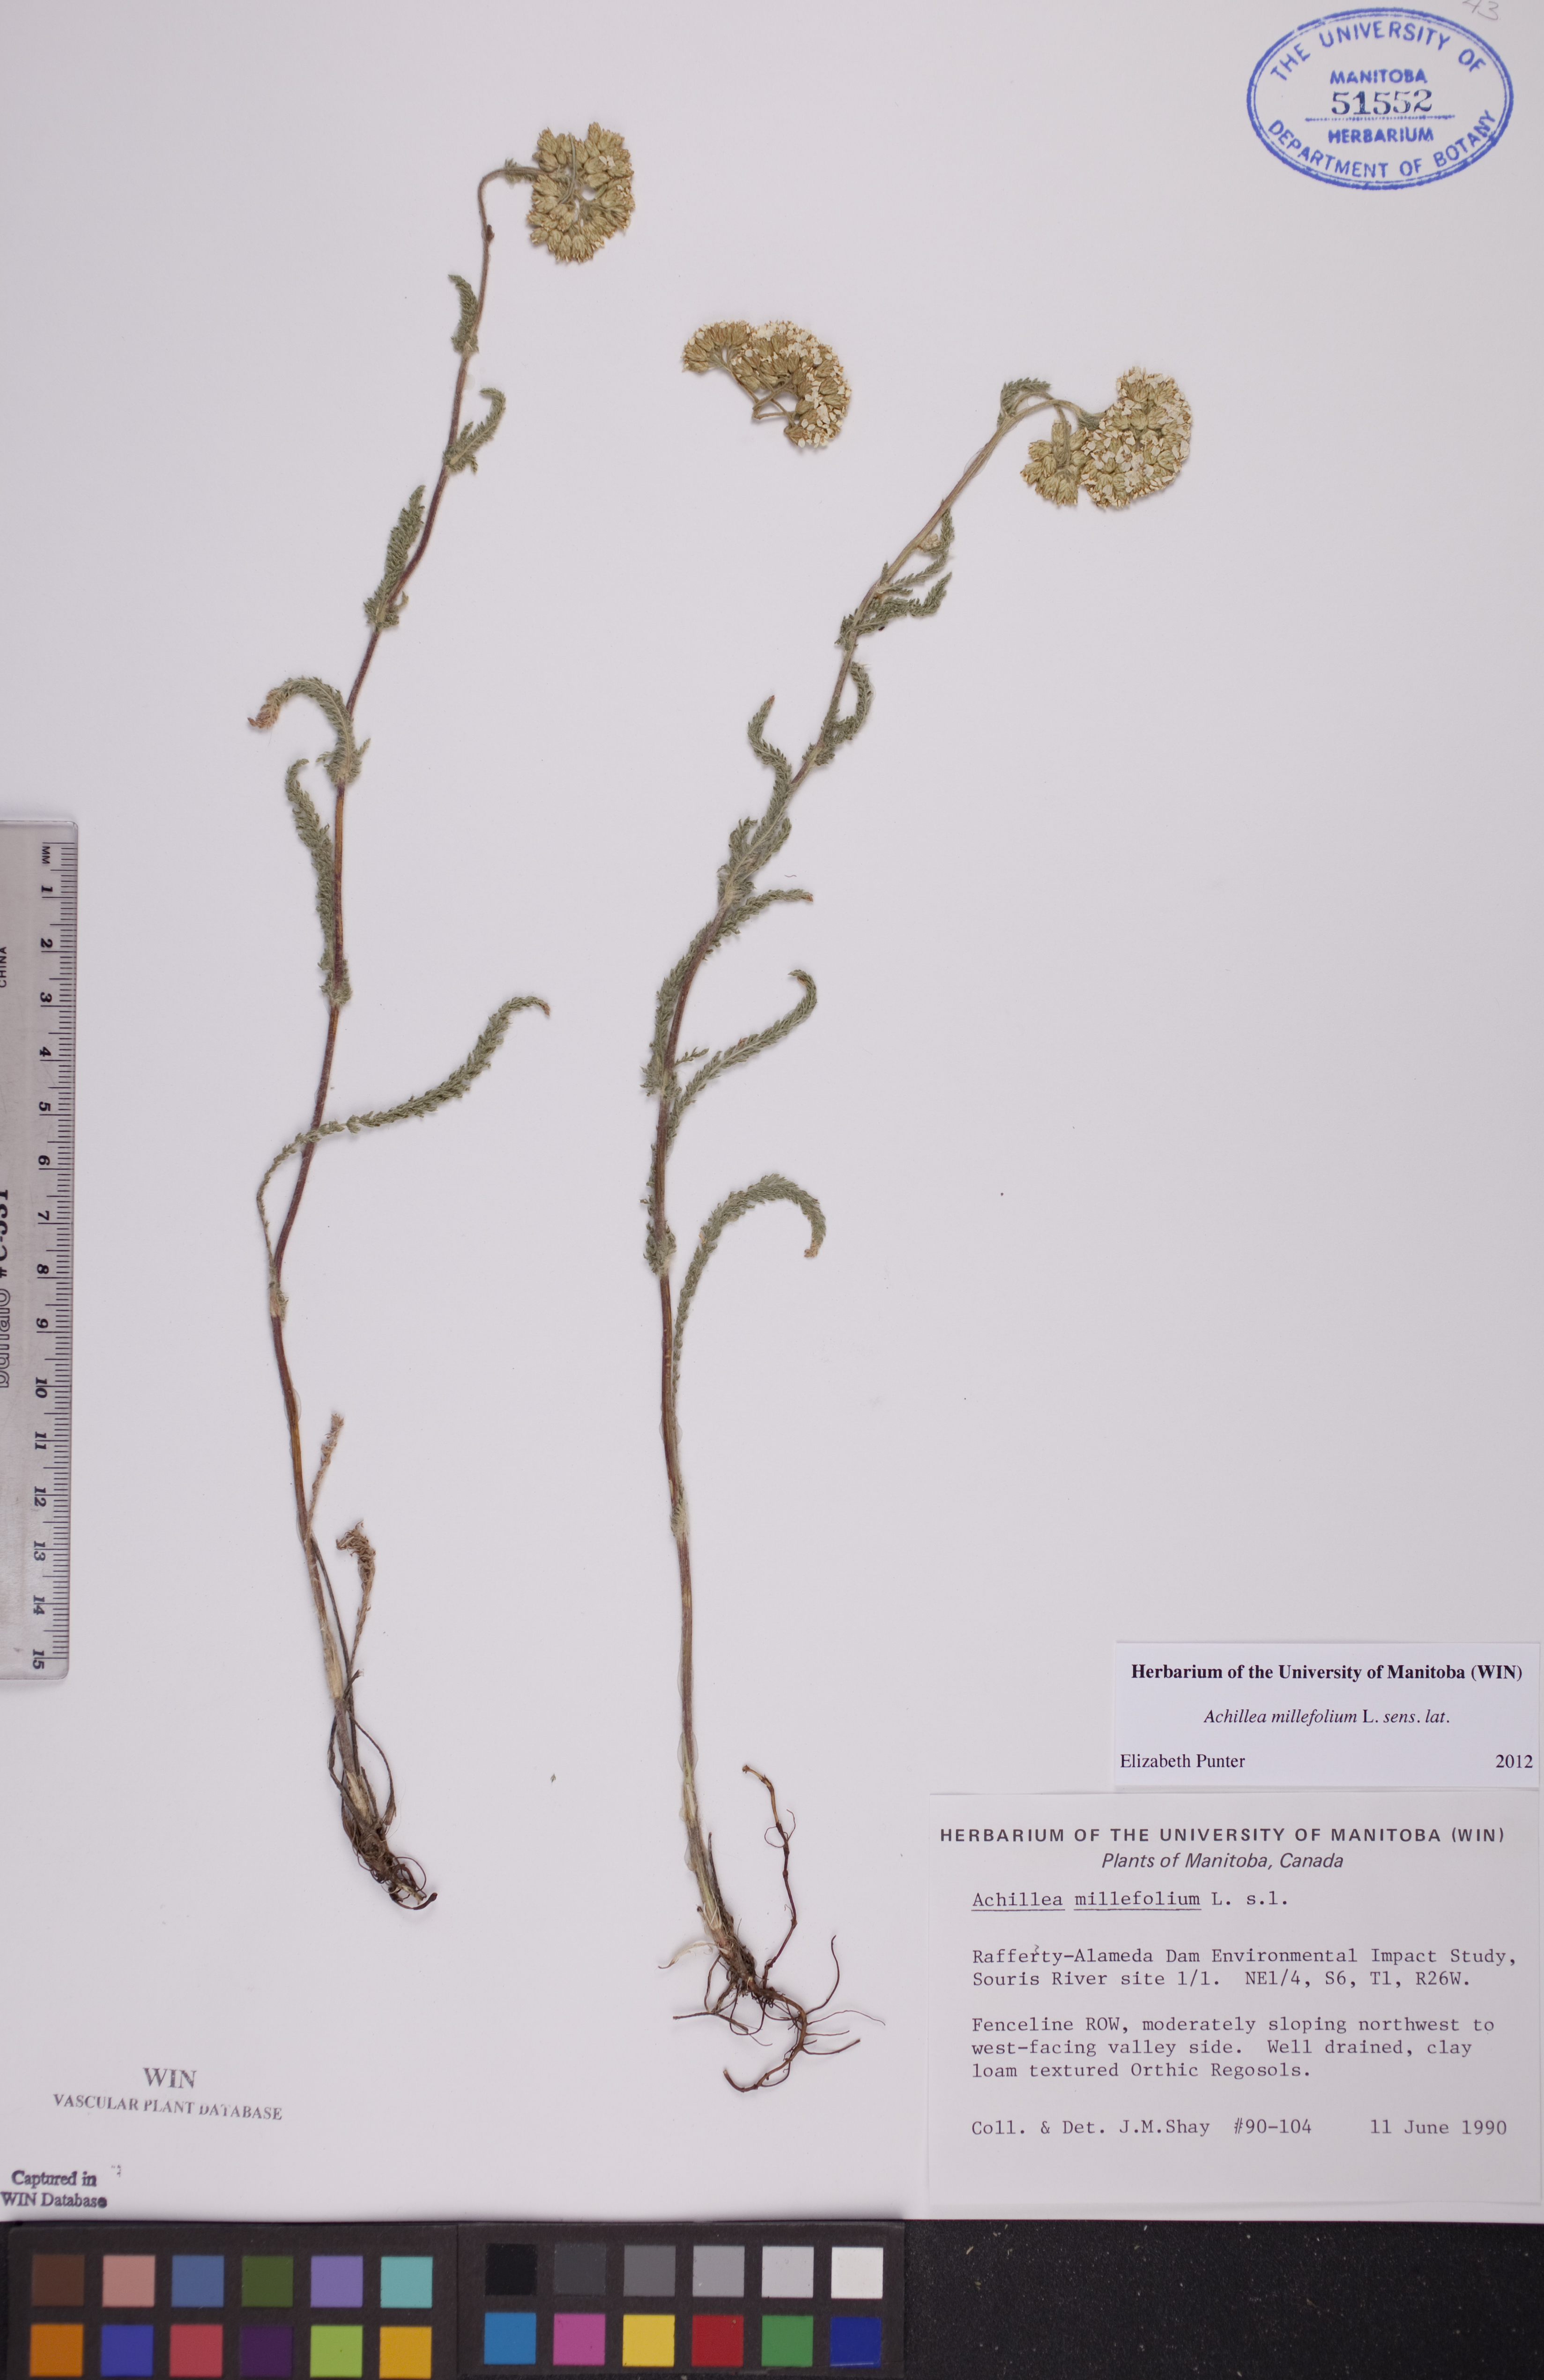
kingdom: Plantae
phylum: Tracheophyta
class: Magnoliopsida
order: Asterales
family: Asteraceae
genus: Achillea
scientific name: Achillea millefolium
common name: Yarrow
